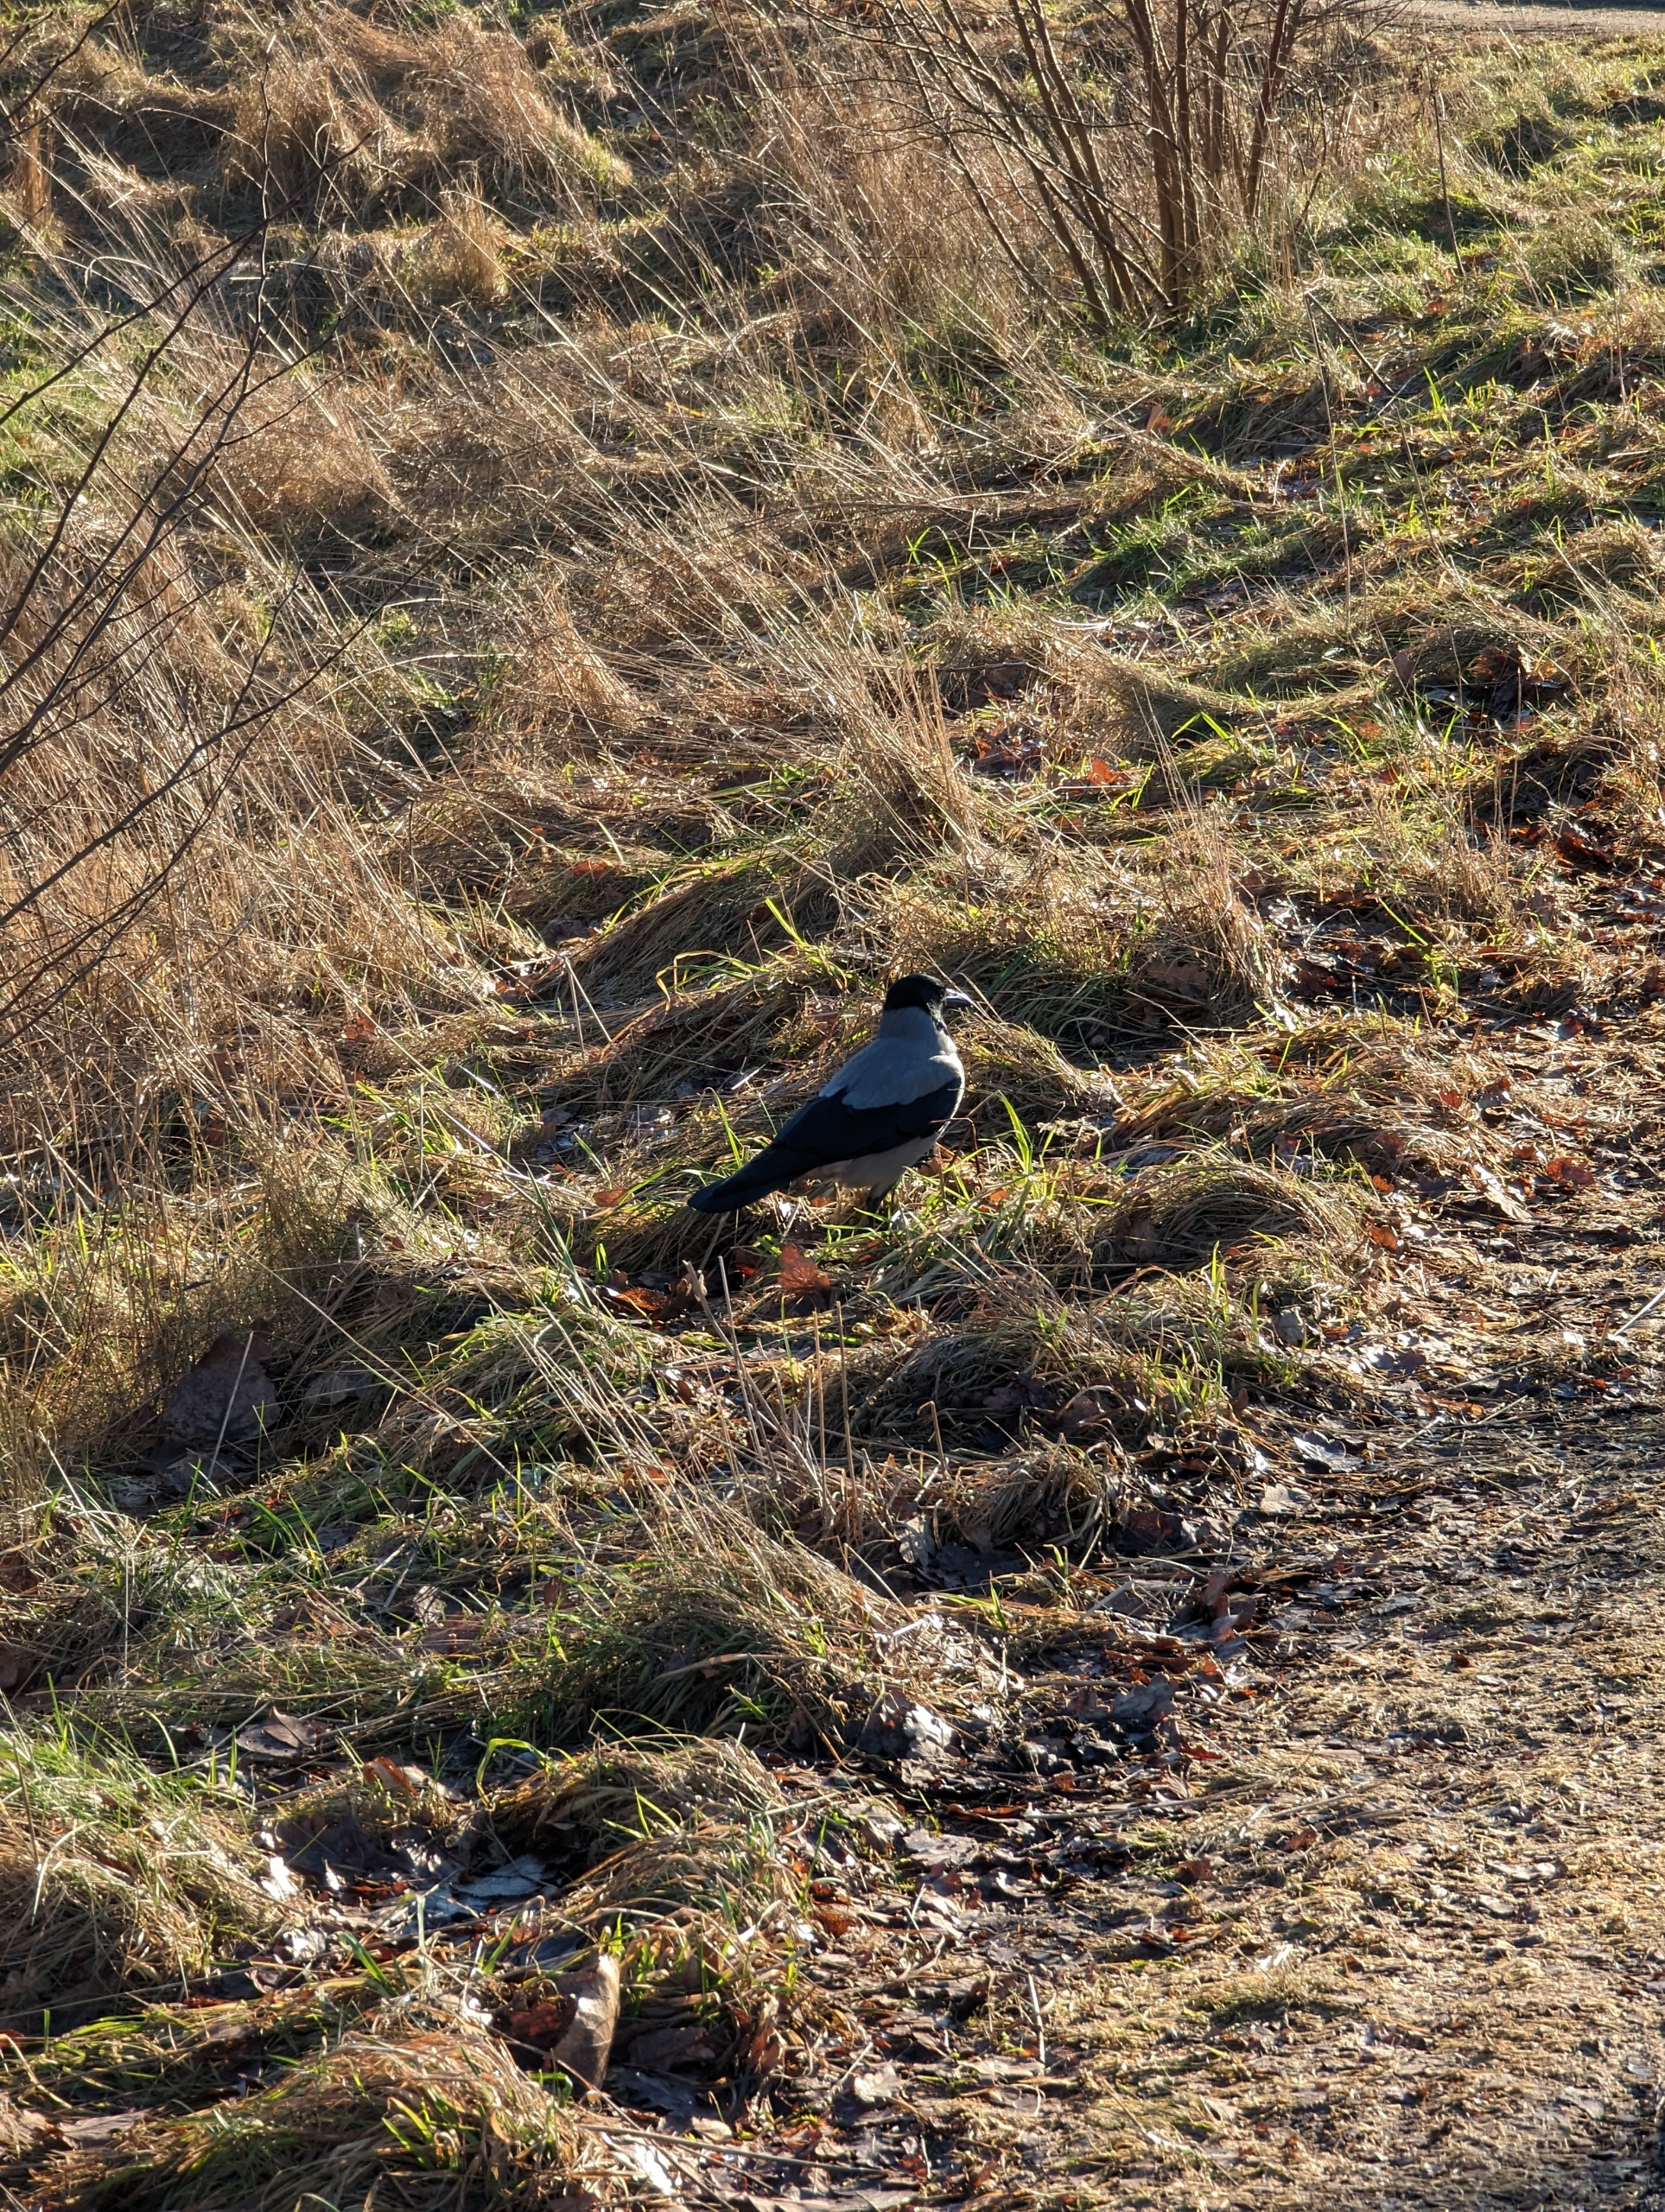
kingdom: Animalia
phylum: Chordata
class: Aves
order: Passeriformes
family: Corvidae
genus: Corvus
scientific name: Corvus cornix
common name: Gråkrage
